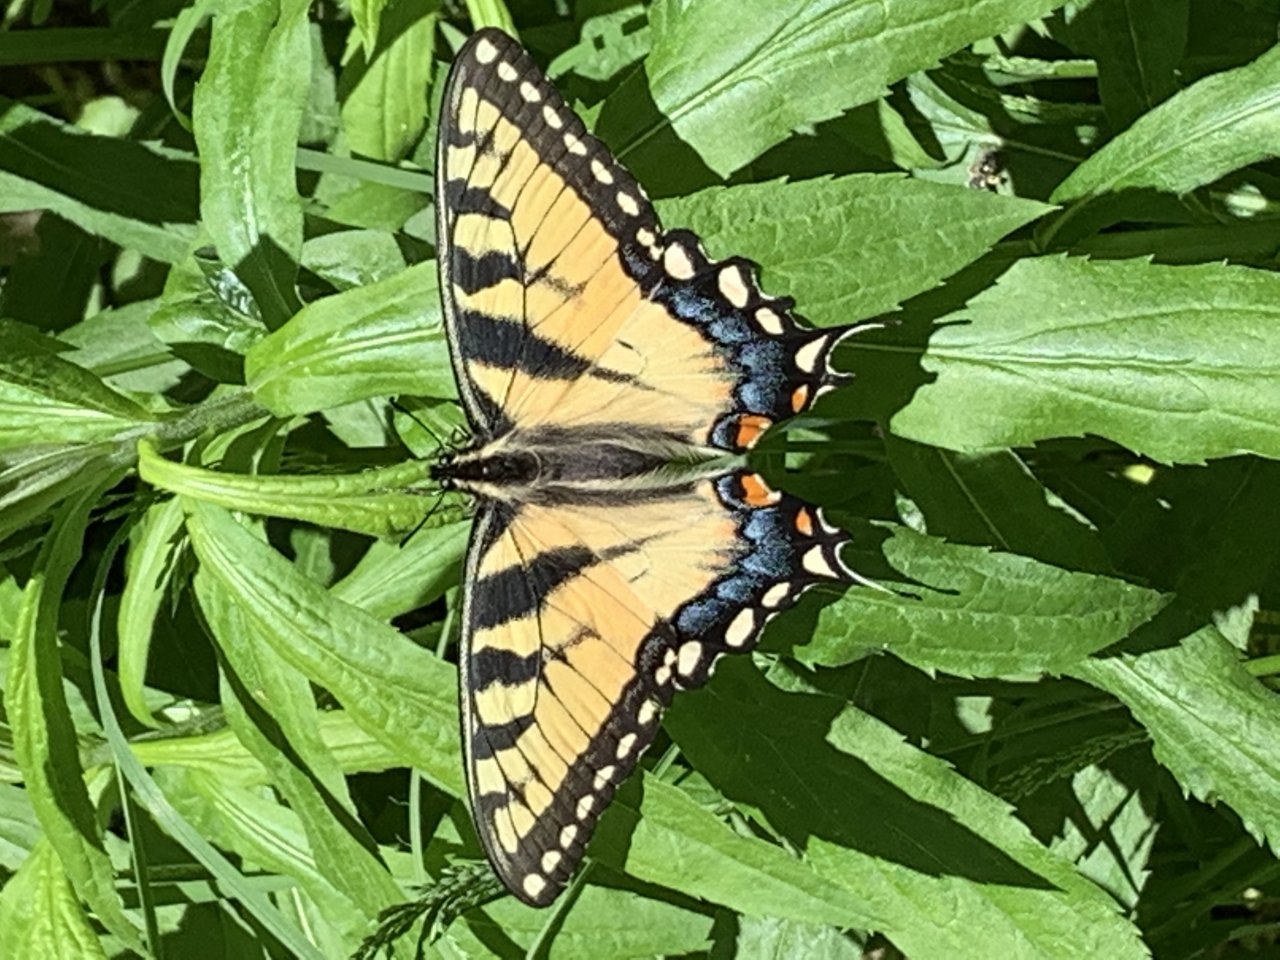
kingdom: Animalia
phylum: Arthropoda
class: Insecta
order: Lepidoptera
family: Papilionidae
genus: Pterourus
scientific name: Pterourus
